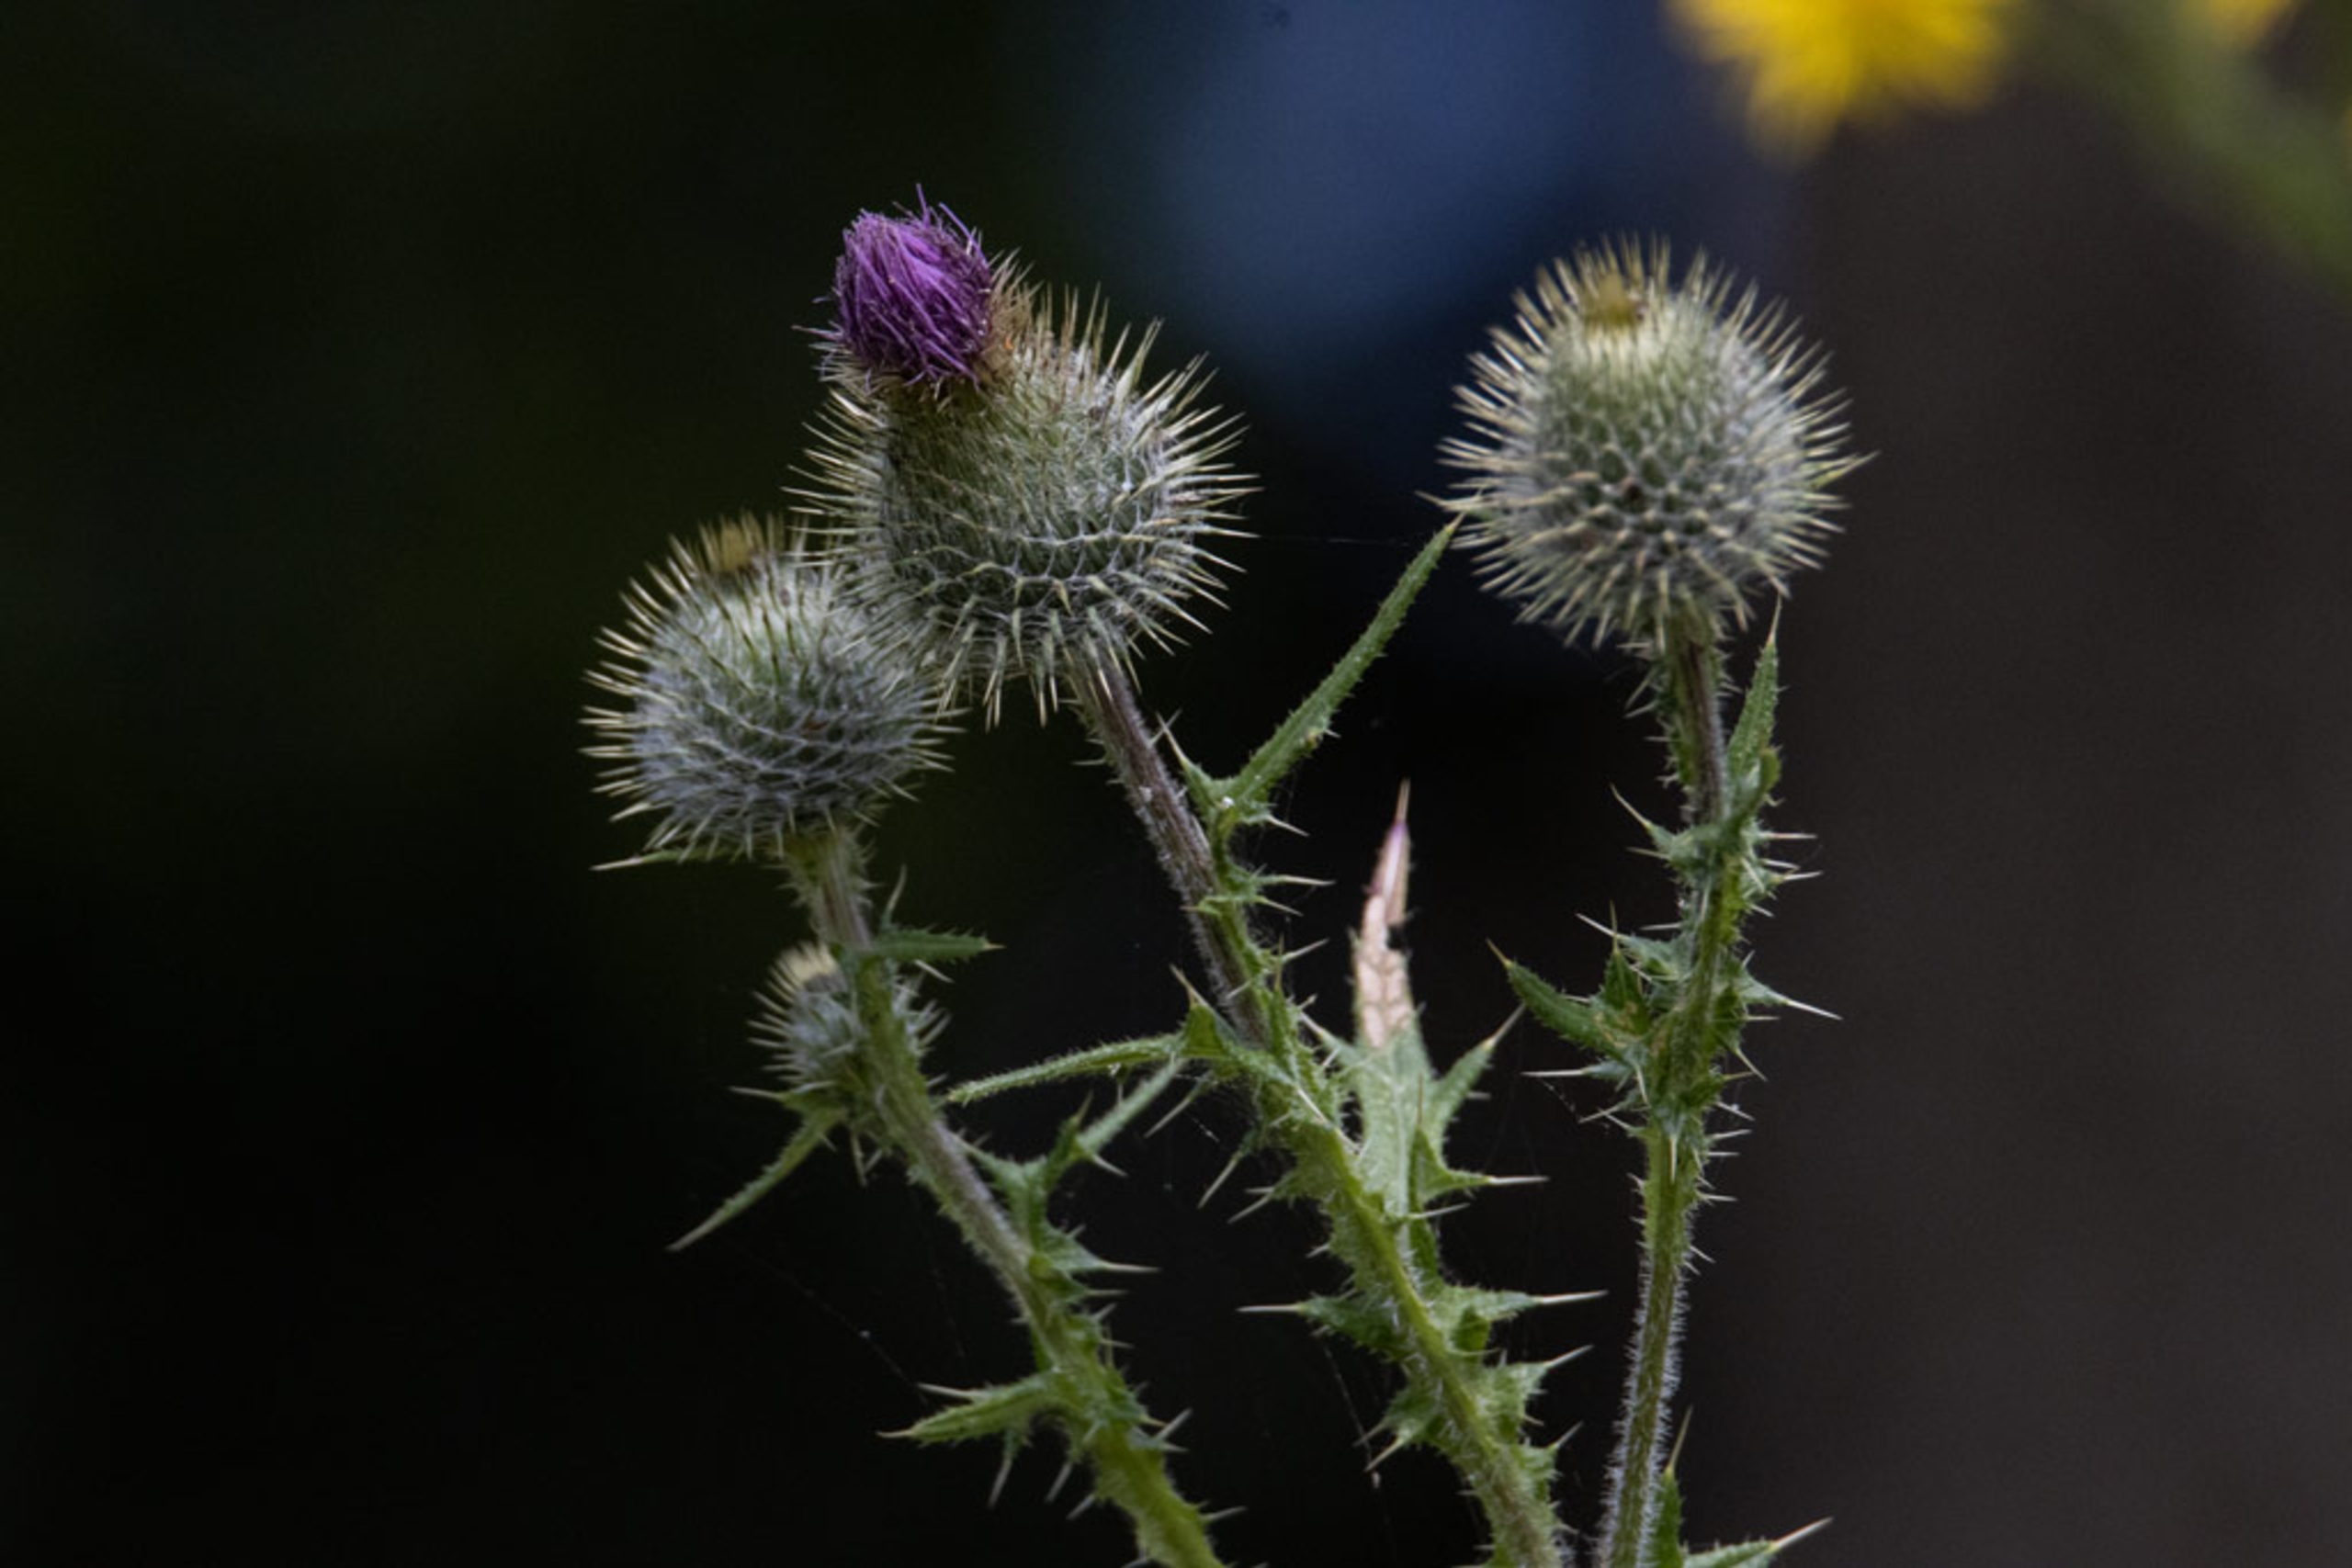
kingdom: Plantae
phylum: Tracheophyta
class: Magnoliopsida
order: Asterales
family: Asteraceae
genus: Cirsium
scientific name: Cirsium vulgare
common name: Horse-tidsel
